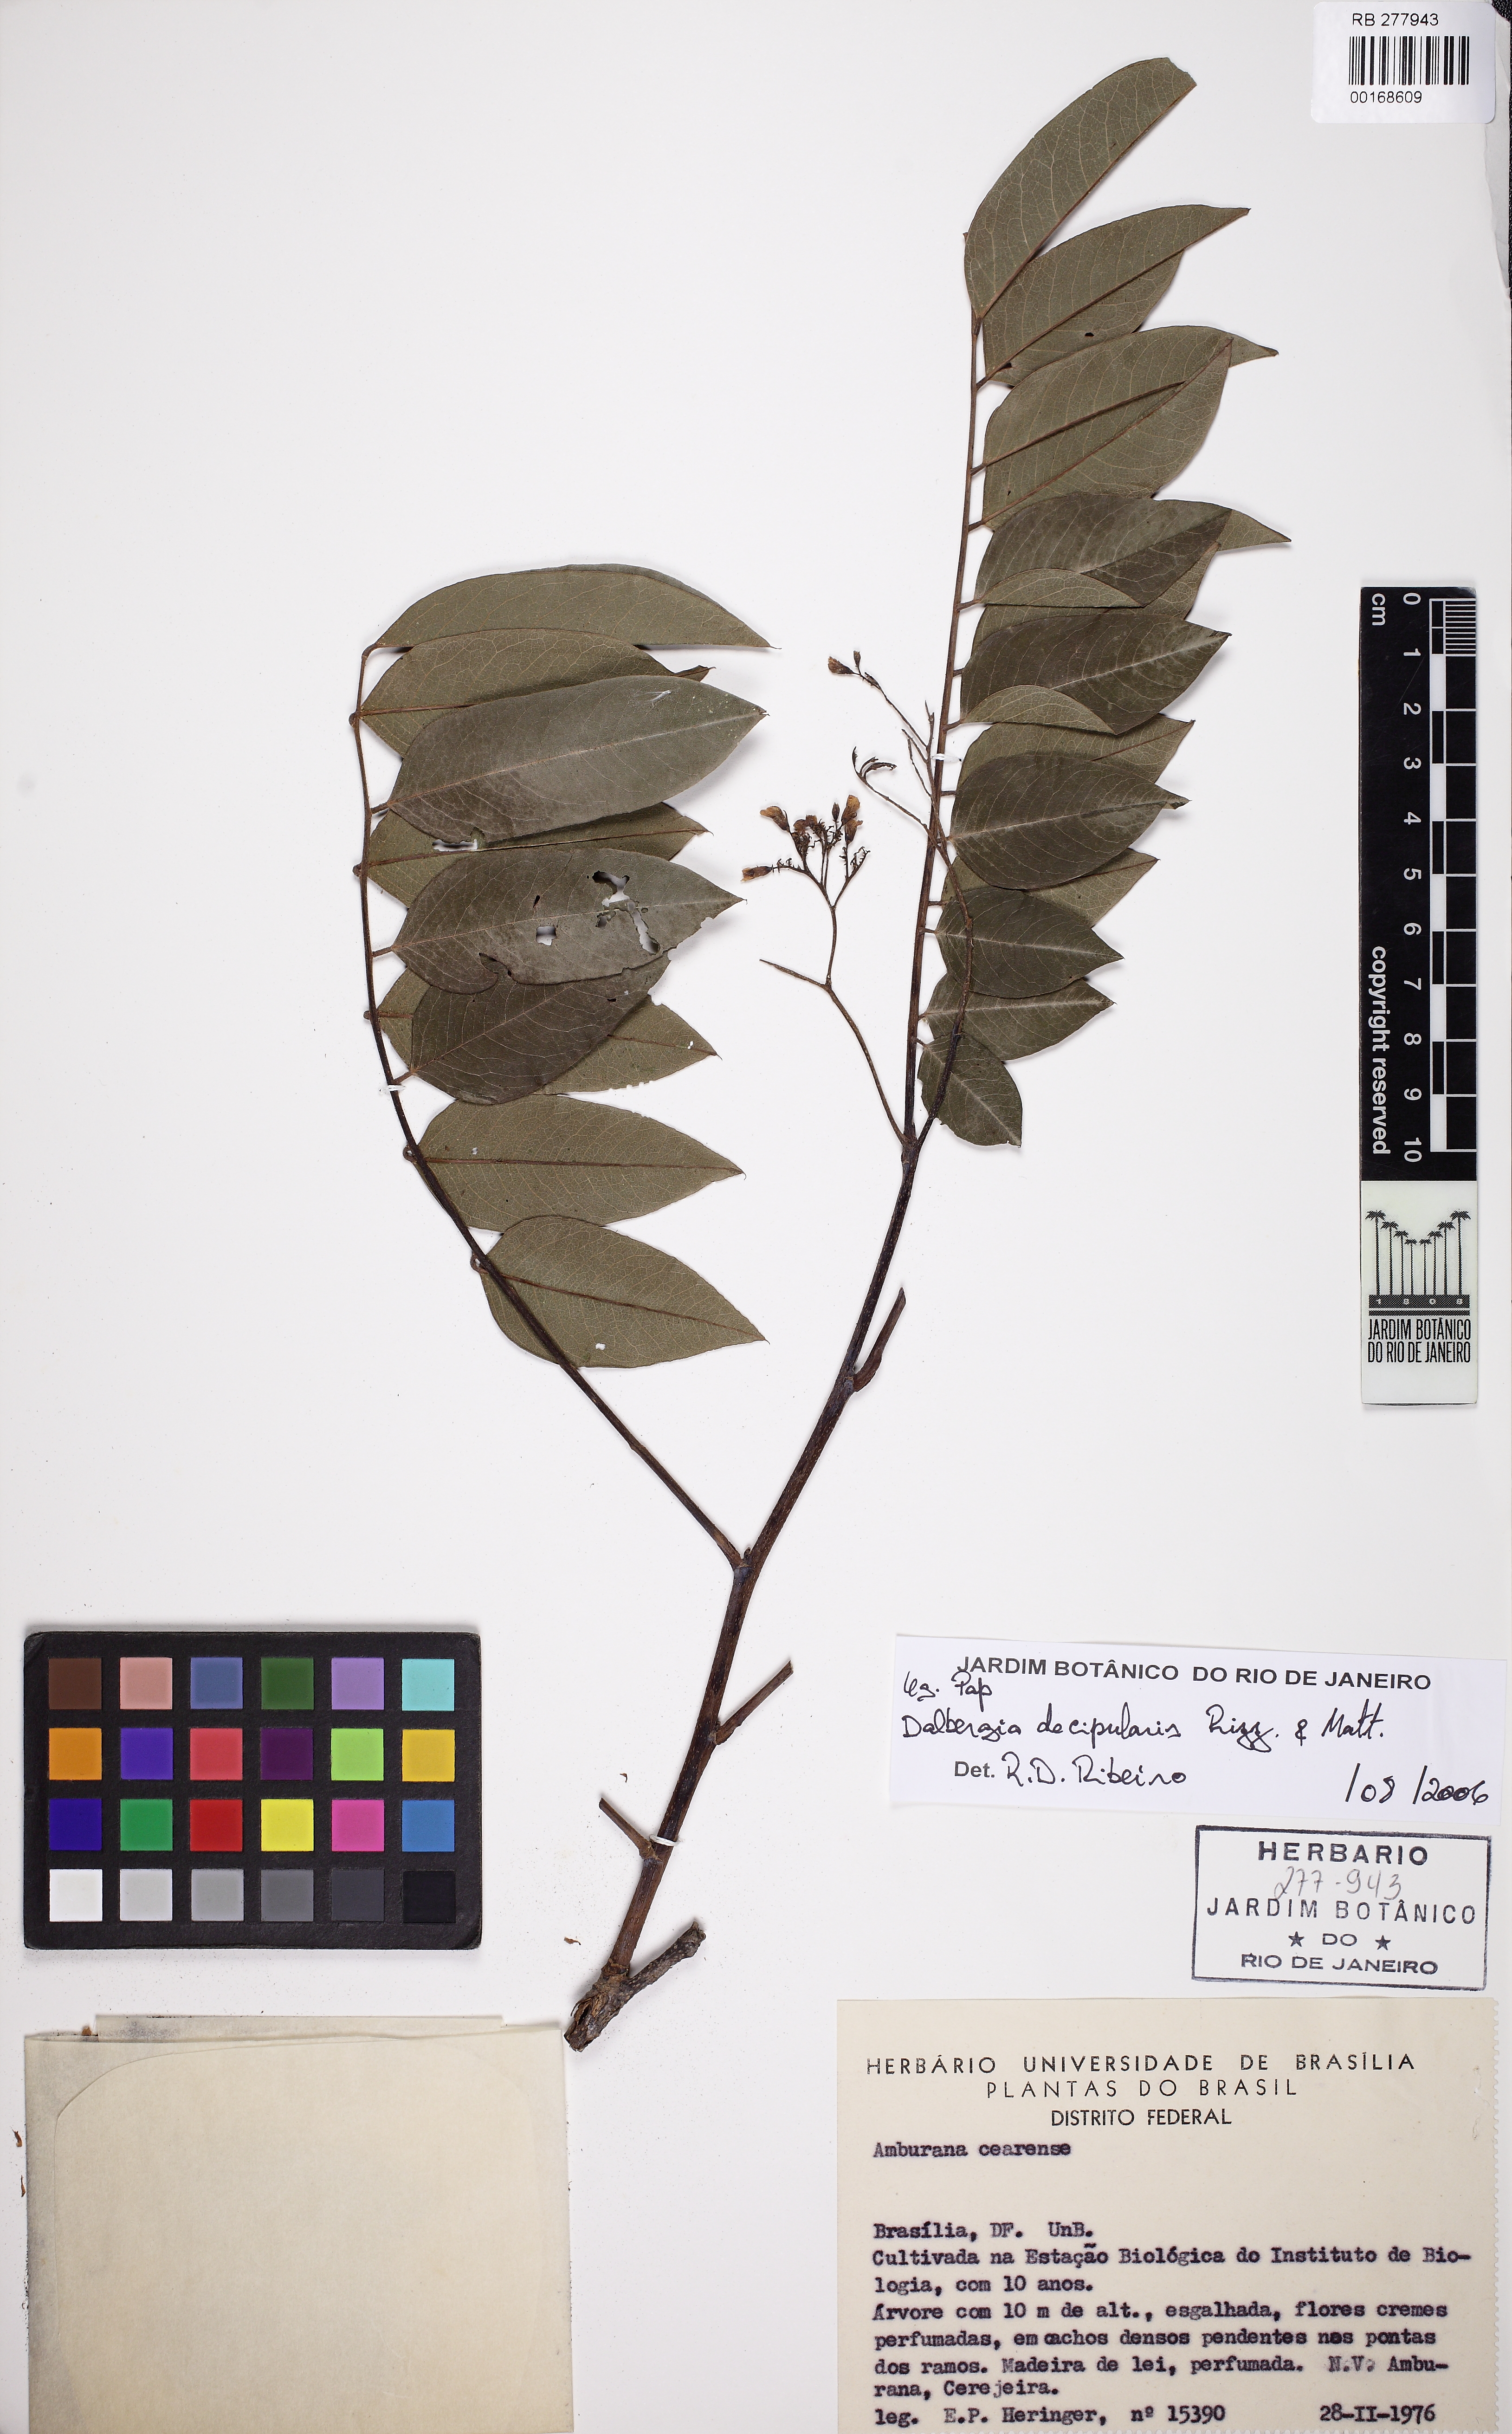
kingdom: Plantae
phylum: Tracheophyta
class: Magnoliopsida
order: Fabales
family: Fabaceae
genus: Dalbergia
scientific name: Dalbergia decipularis
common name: Brazilian tulipwood
